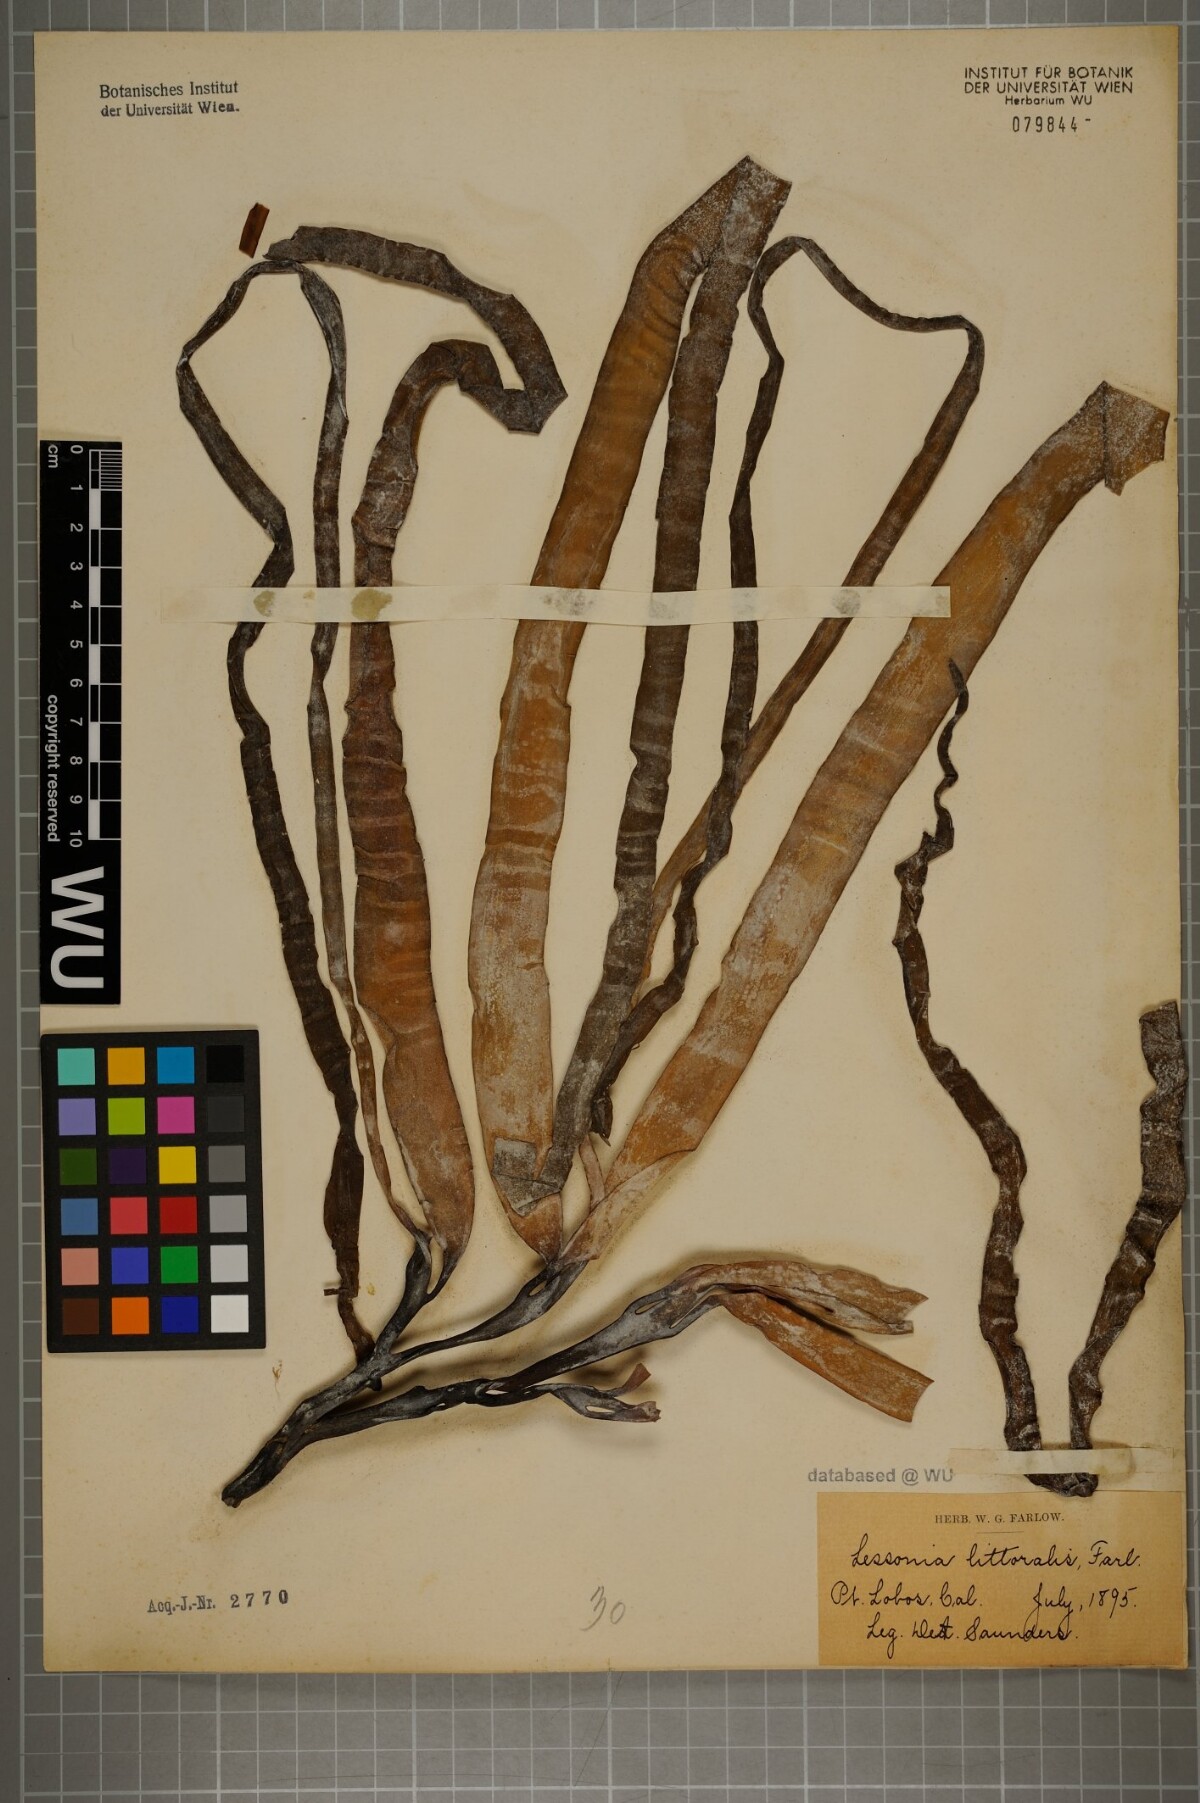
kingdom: Chromista
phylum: Ochrophyta
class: Phaeophyceae
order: Laminariales
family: Alariaceae
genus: Lessoniopsis
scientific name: Lessoniopsis littoralis
